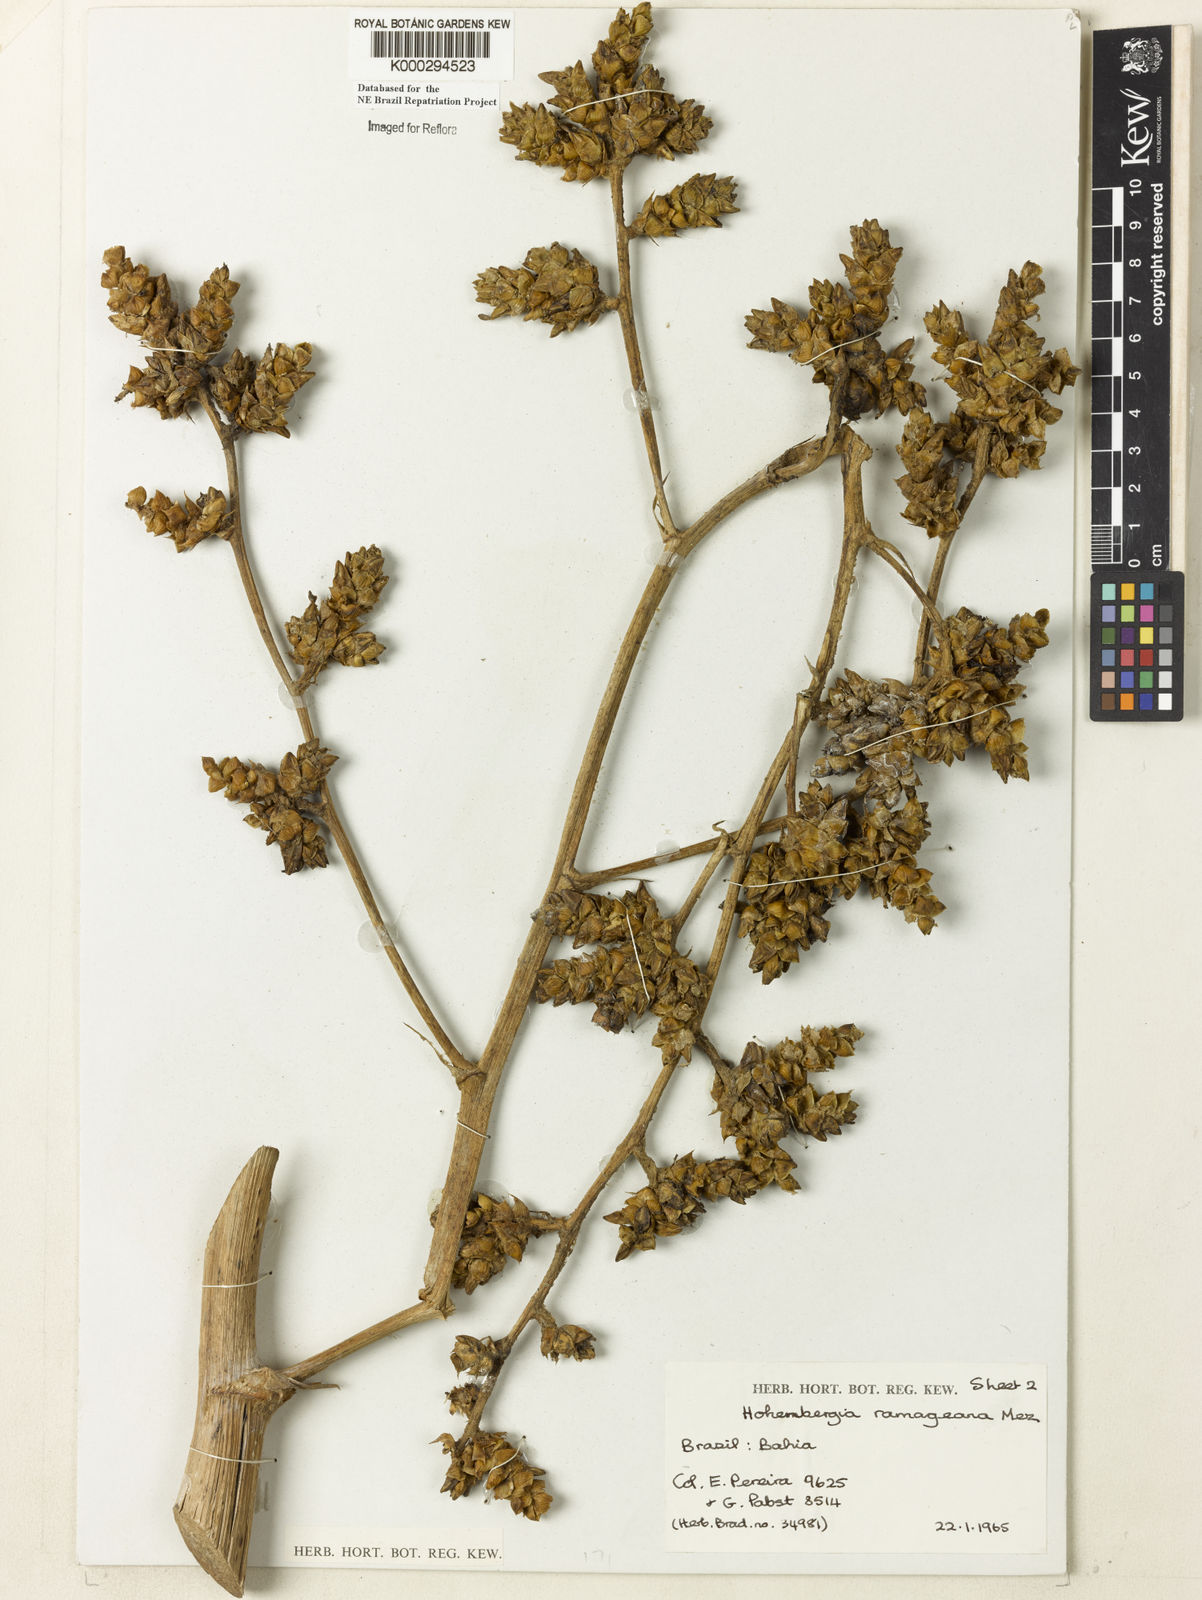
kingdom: Plantae
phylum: Tracheophyta
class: Liliopsida
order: Poales
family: Bromeliaceae
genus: Hohenbergia
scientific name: Hohenbergia ridleyi
